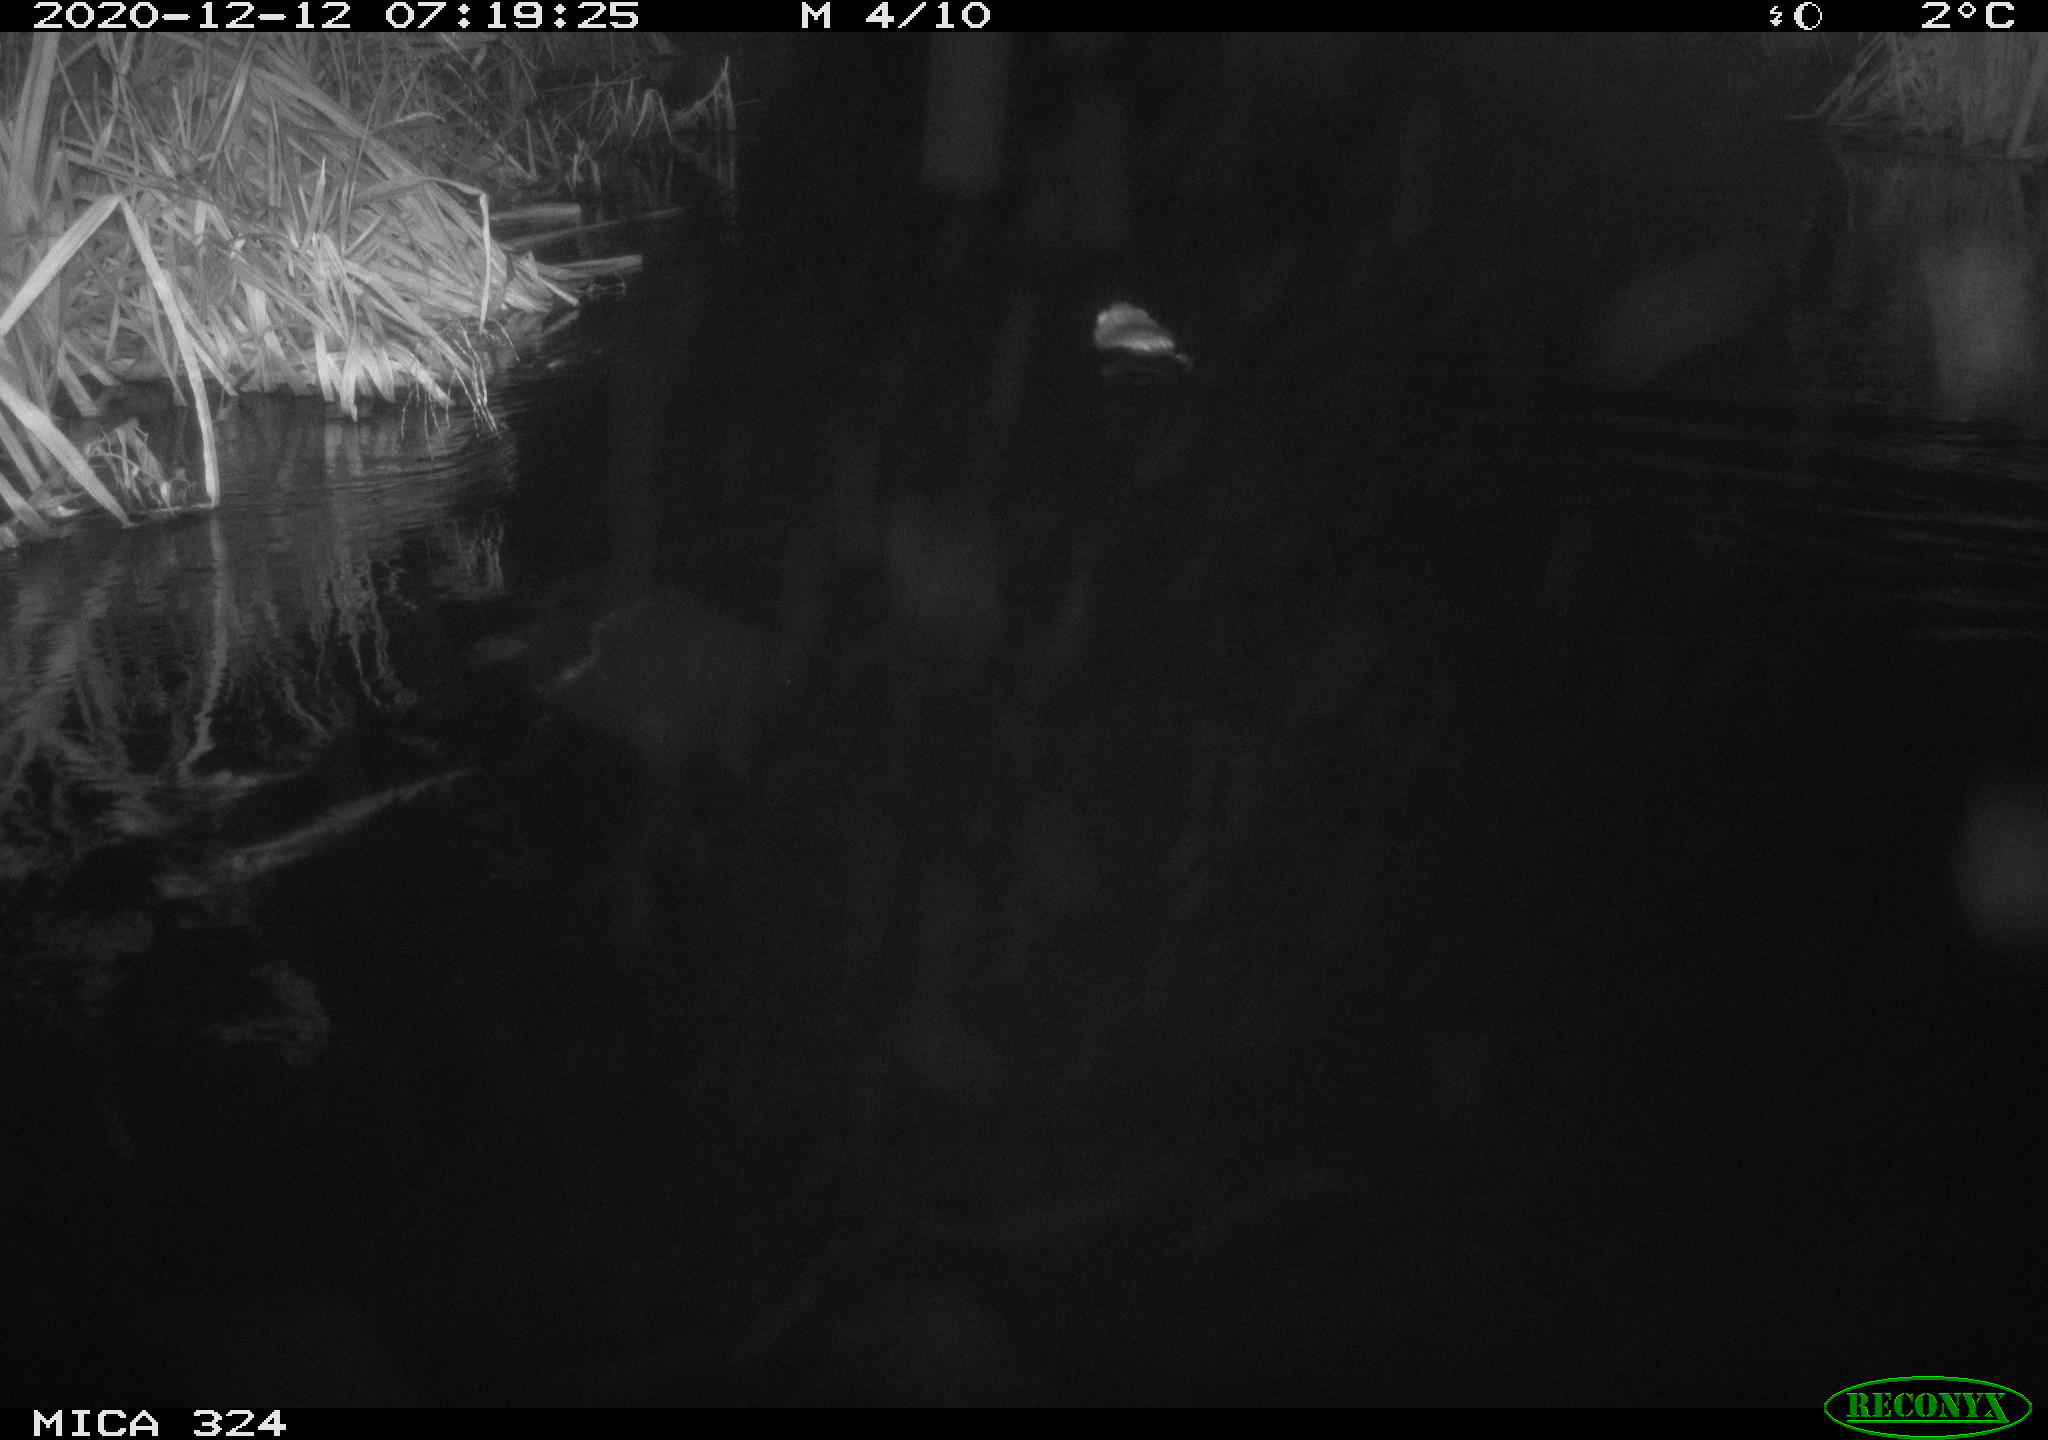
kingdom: Animalia
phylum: Chordata
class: Mammalia
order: Rodentia
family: Cricetidae
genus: Ondatra
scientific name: Ondatra zibethicus
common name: Muskrat
